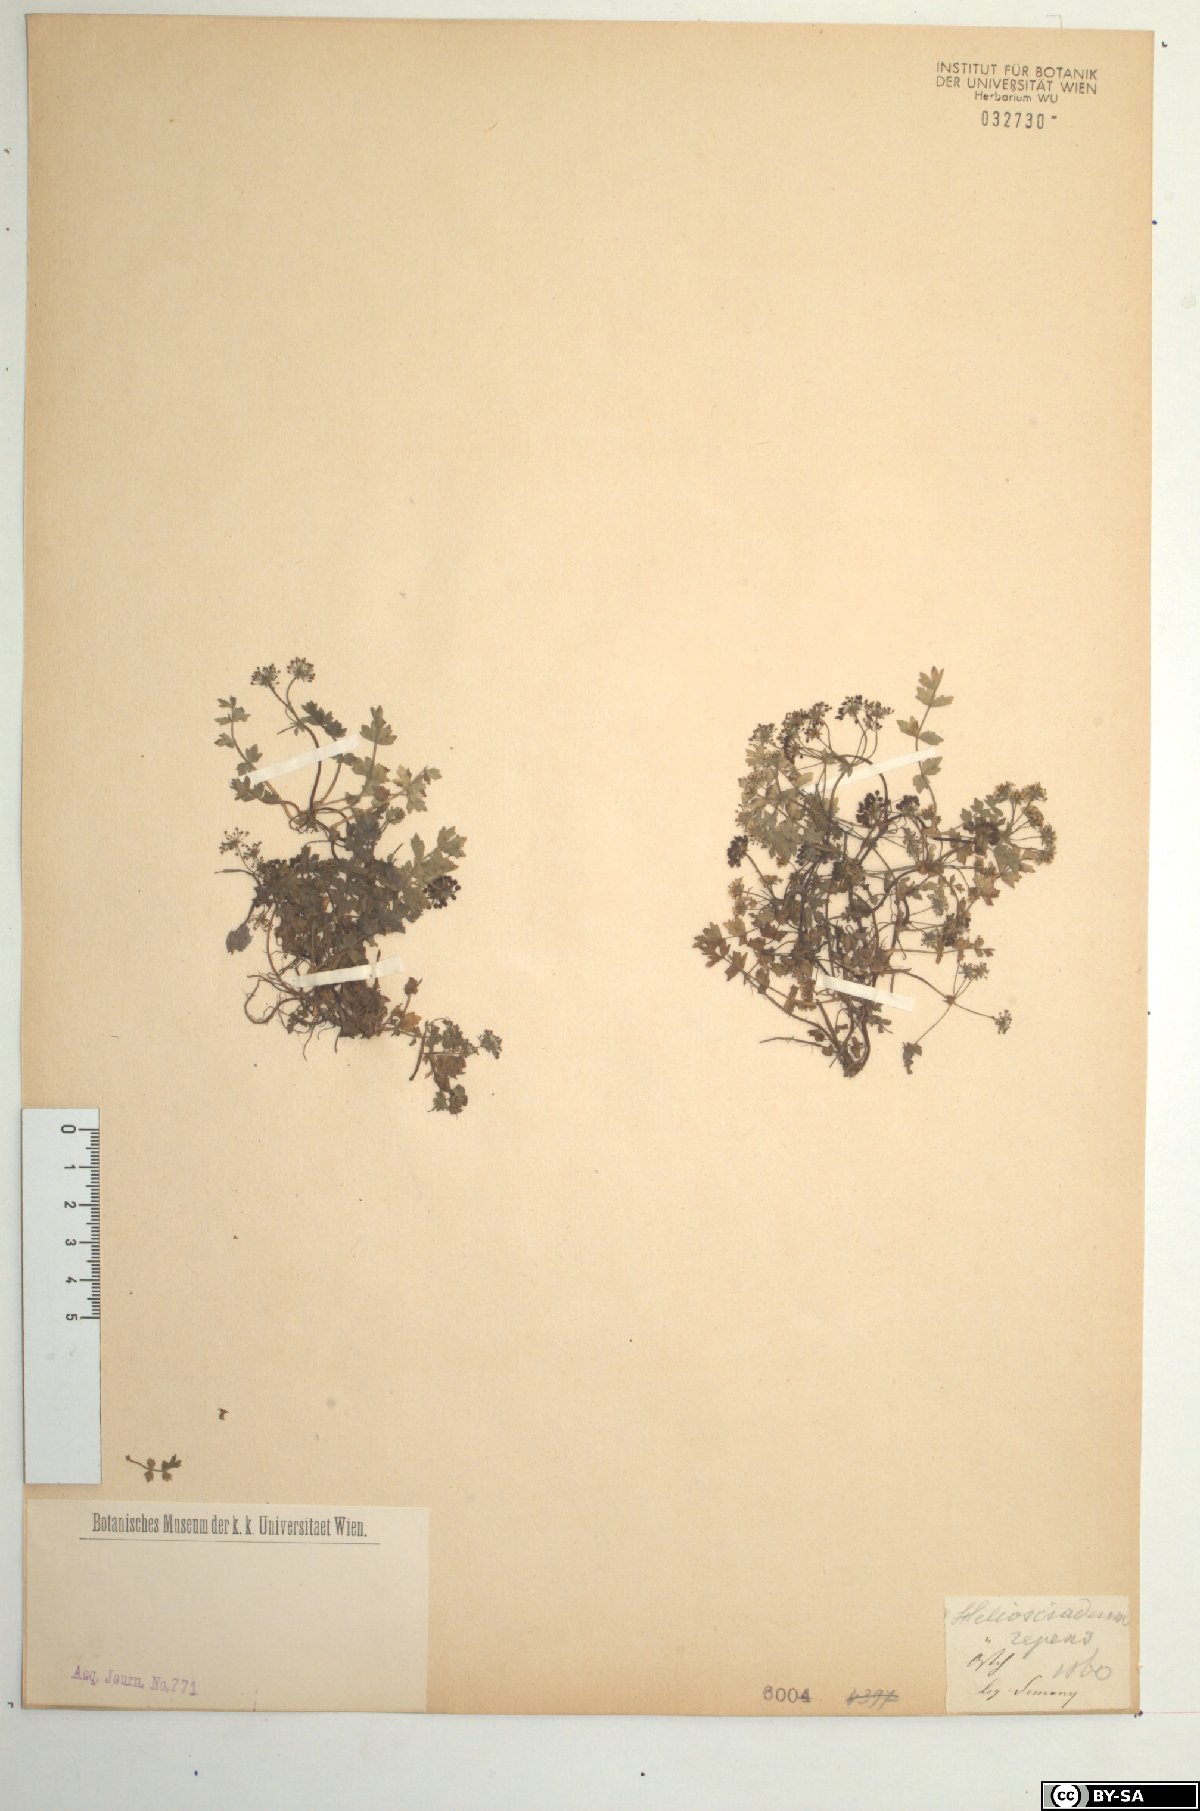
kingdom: Plantae
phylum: Tracheophyta
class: Magnoliopsida
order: Apiales
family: Apiaceae
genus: Helosciadium
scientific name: Helosciadium repens
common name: Creeping marshwort
